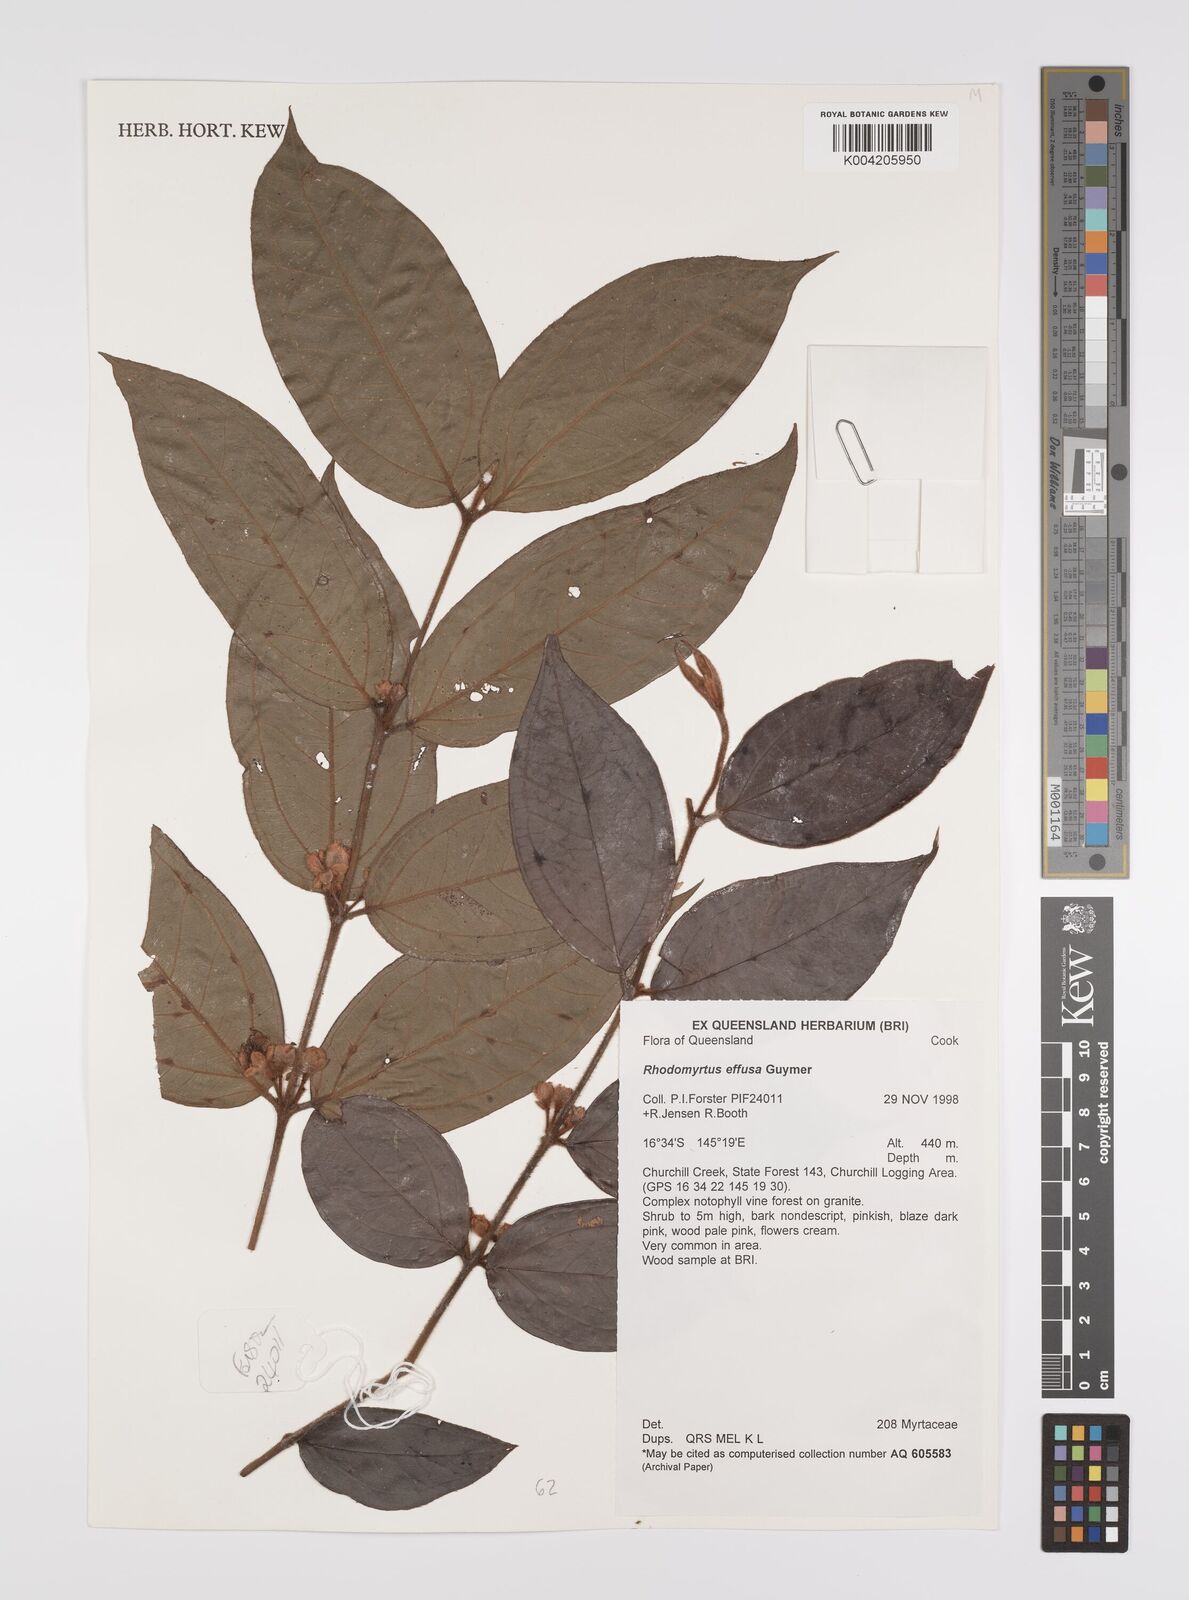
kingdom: Plantae
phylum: Tracheophyta
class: Magnoliopsida
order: Myrtales
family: Myrtaceae
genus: Rhodomyrtus
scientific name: Rhodomyrtus effusa
